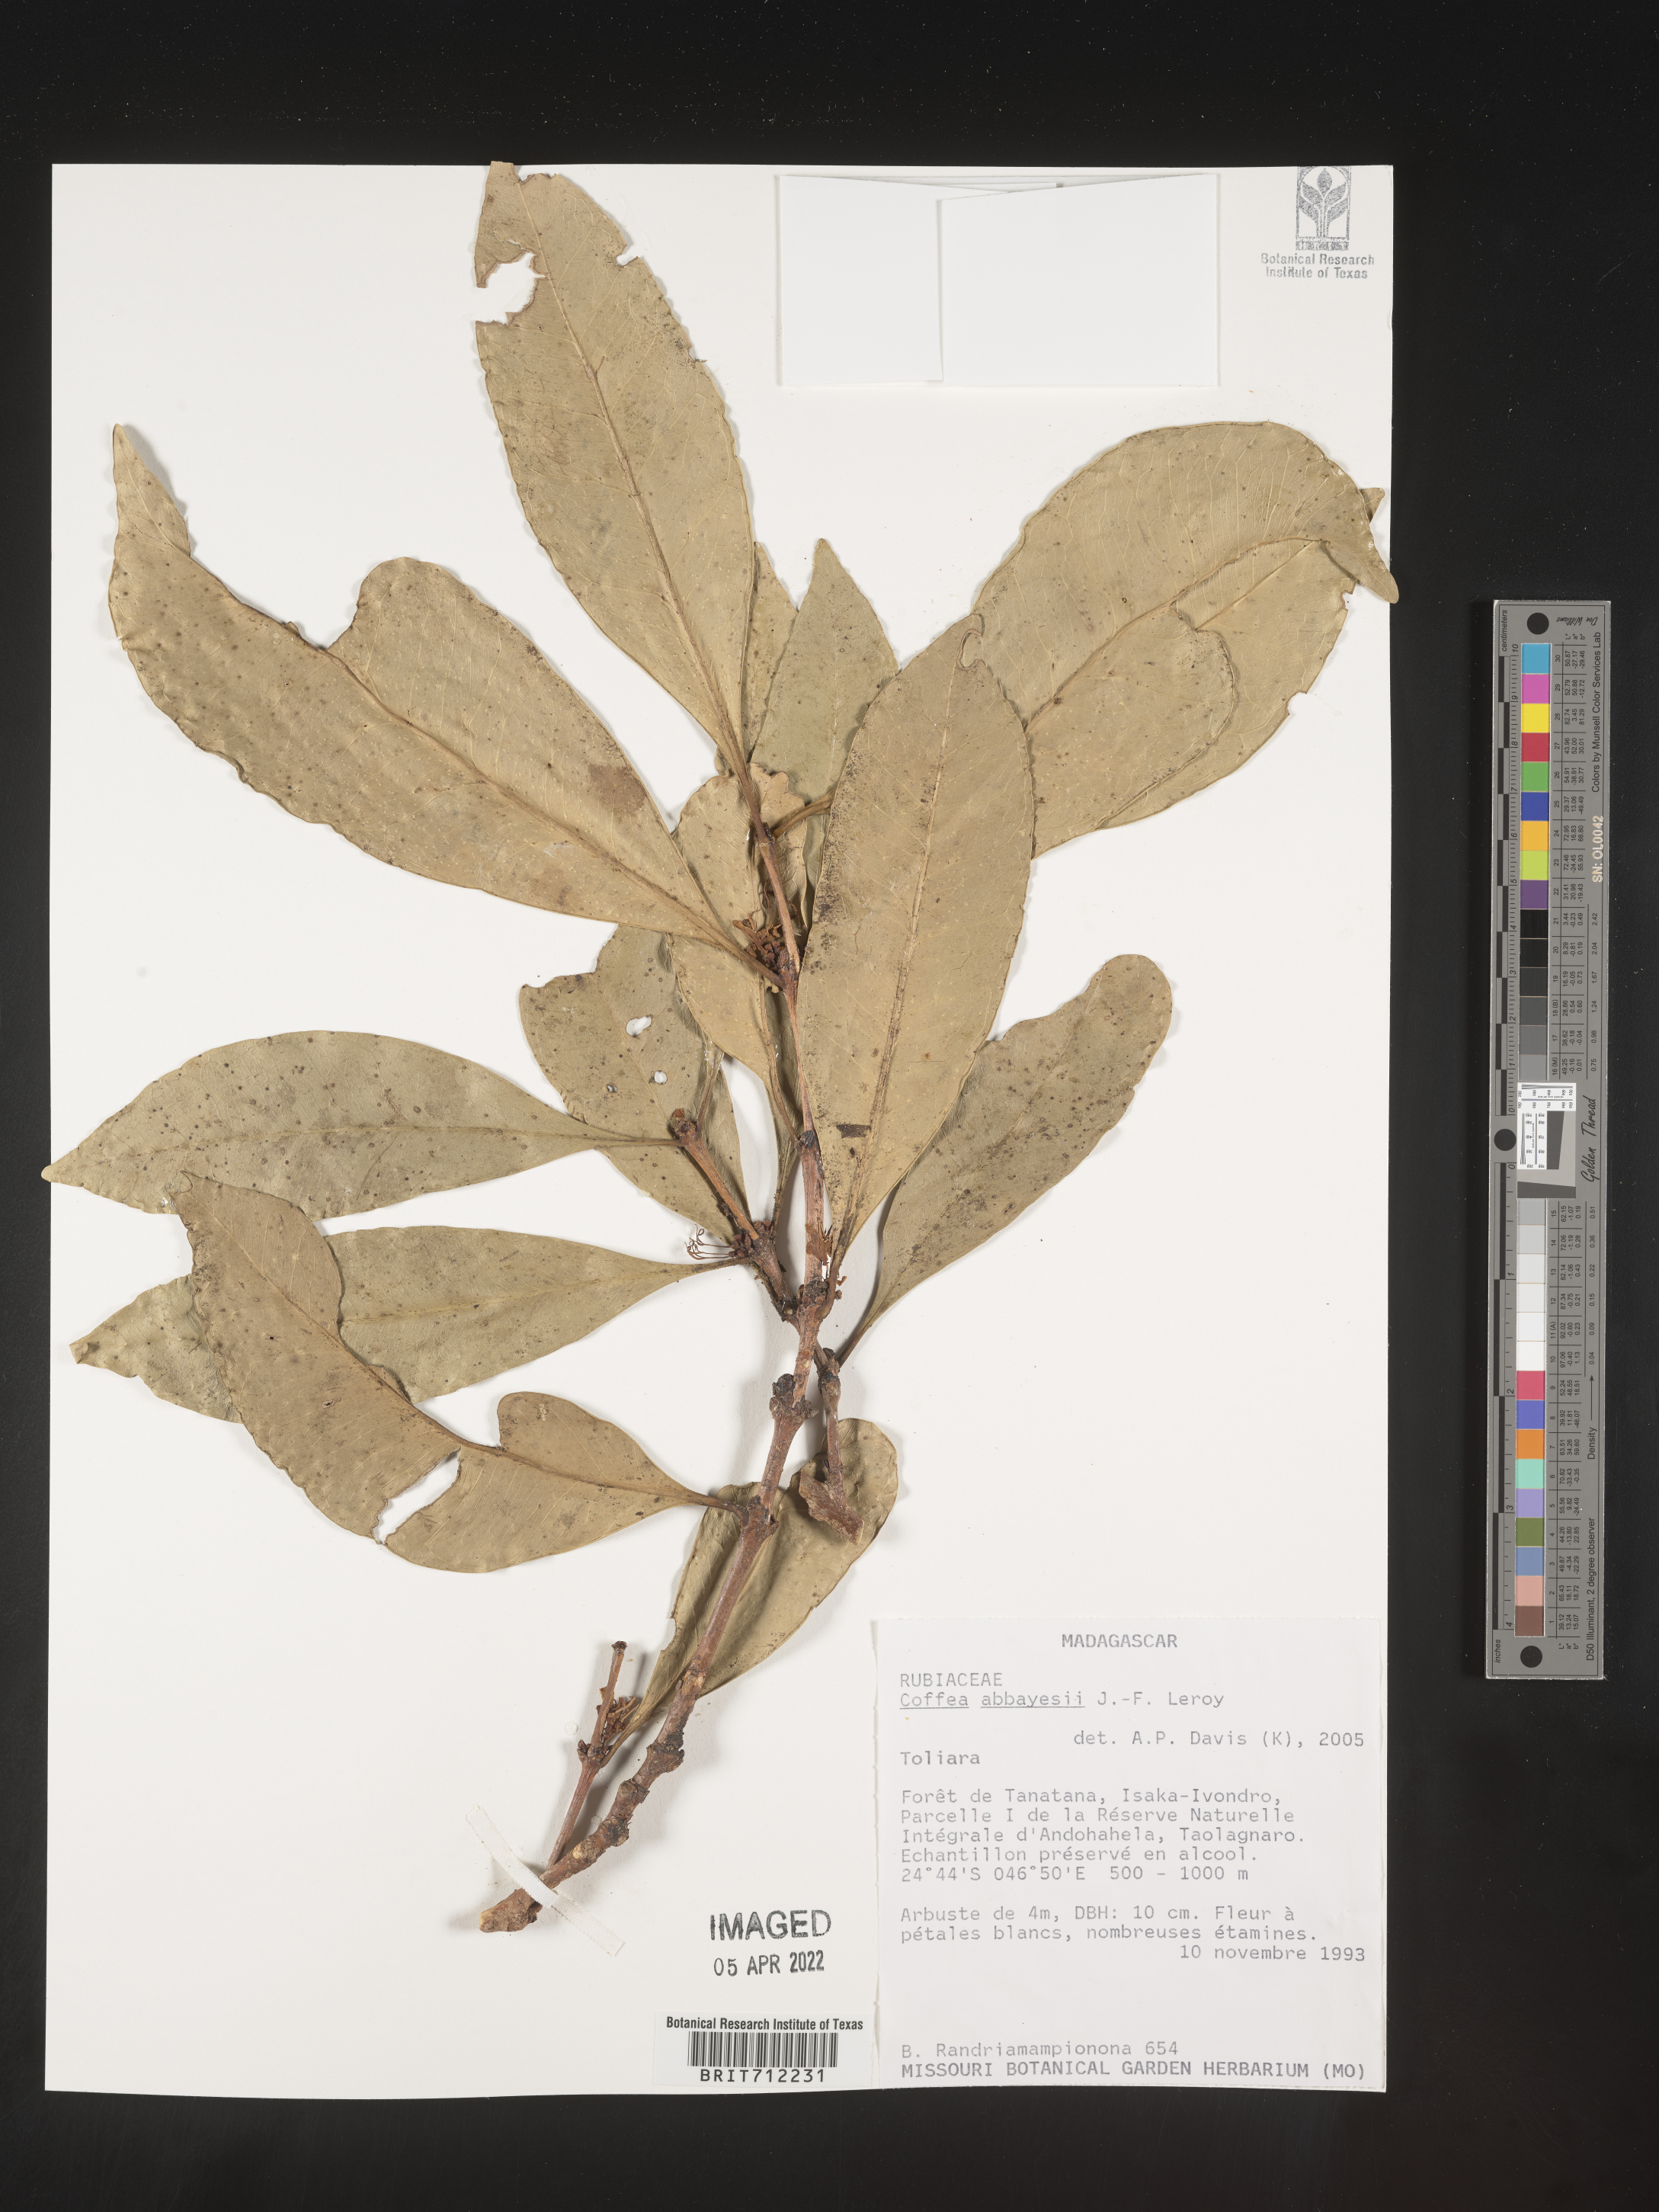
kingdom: Plantae
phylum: Tracheophyta
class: Magnoliopsida
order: Gentianales
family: Rubiaceae
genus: Coffea
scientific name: Coffea
